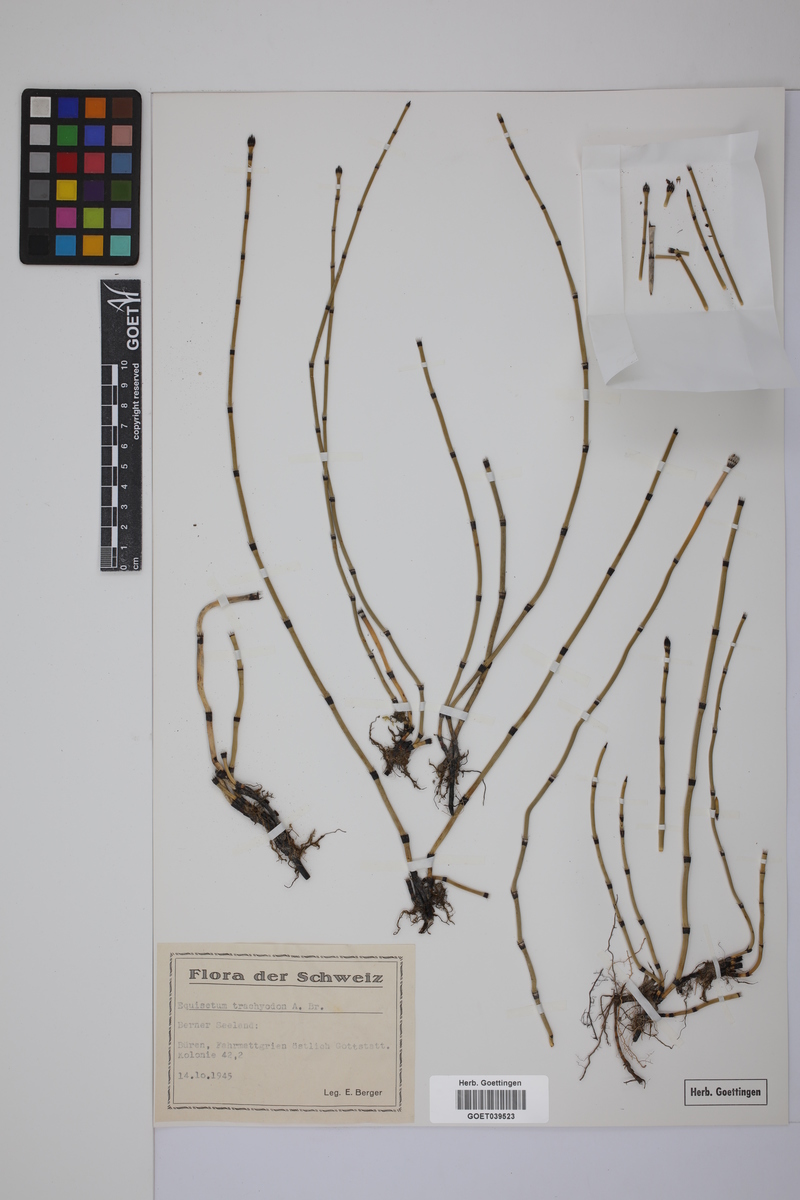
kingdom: Plantae
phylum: Tracheophyta
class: Polypodiopsida
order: Equisetales
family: Equisetaceae
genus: Equisetum
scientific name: Equisetum trachyodon
